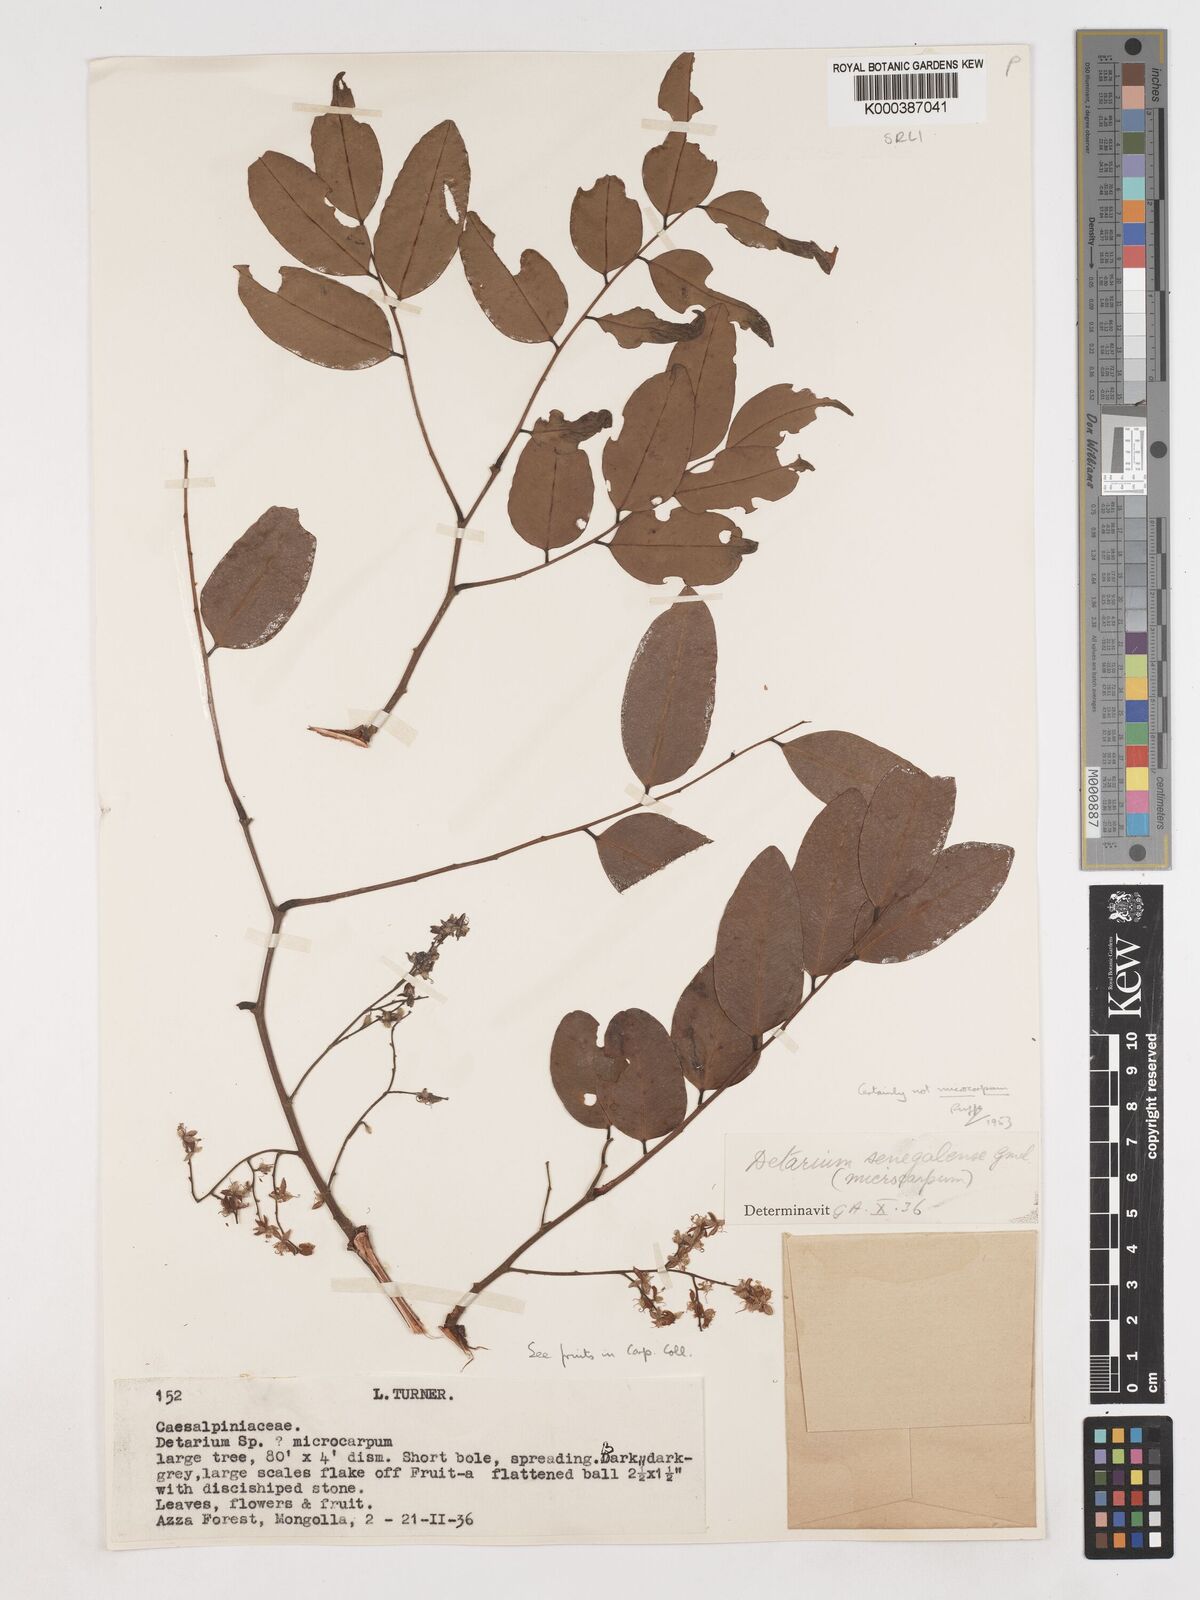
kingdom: Plantae
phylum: Tracheophyta
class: Magnoliopsida
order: Fabales
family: Fabaceae
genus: Detarium
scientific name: Detarium microcarpum
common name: Sweet dattock
